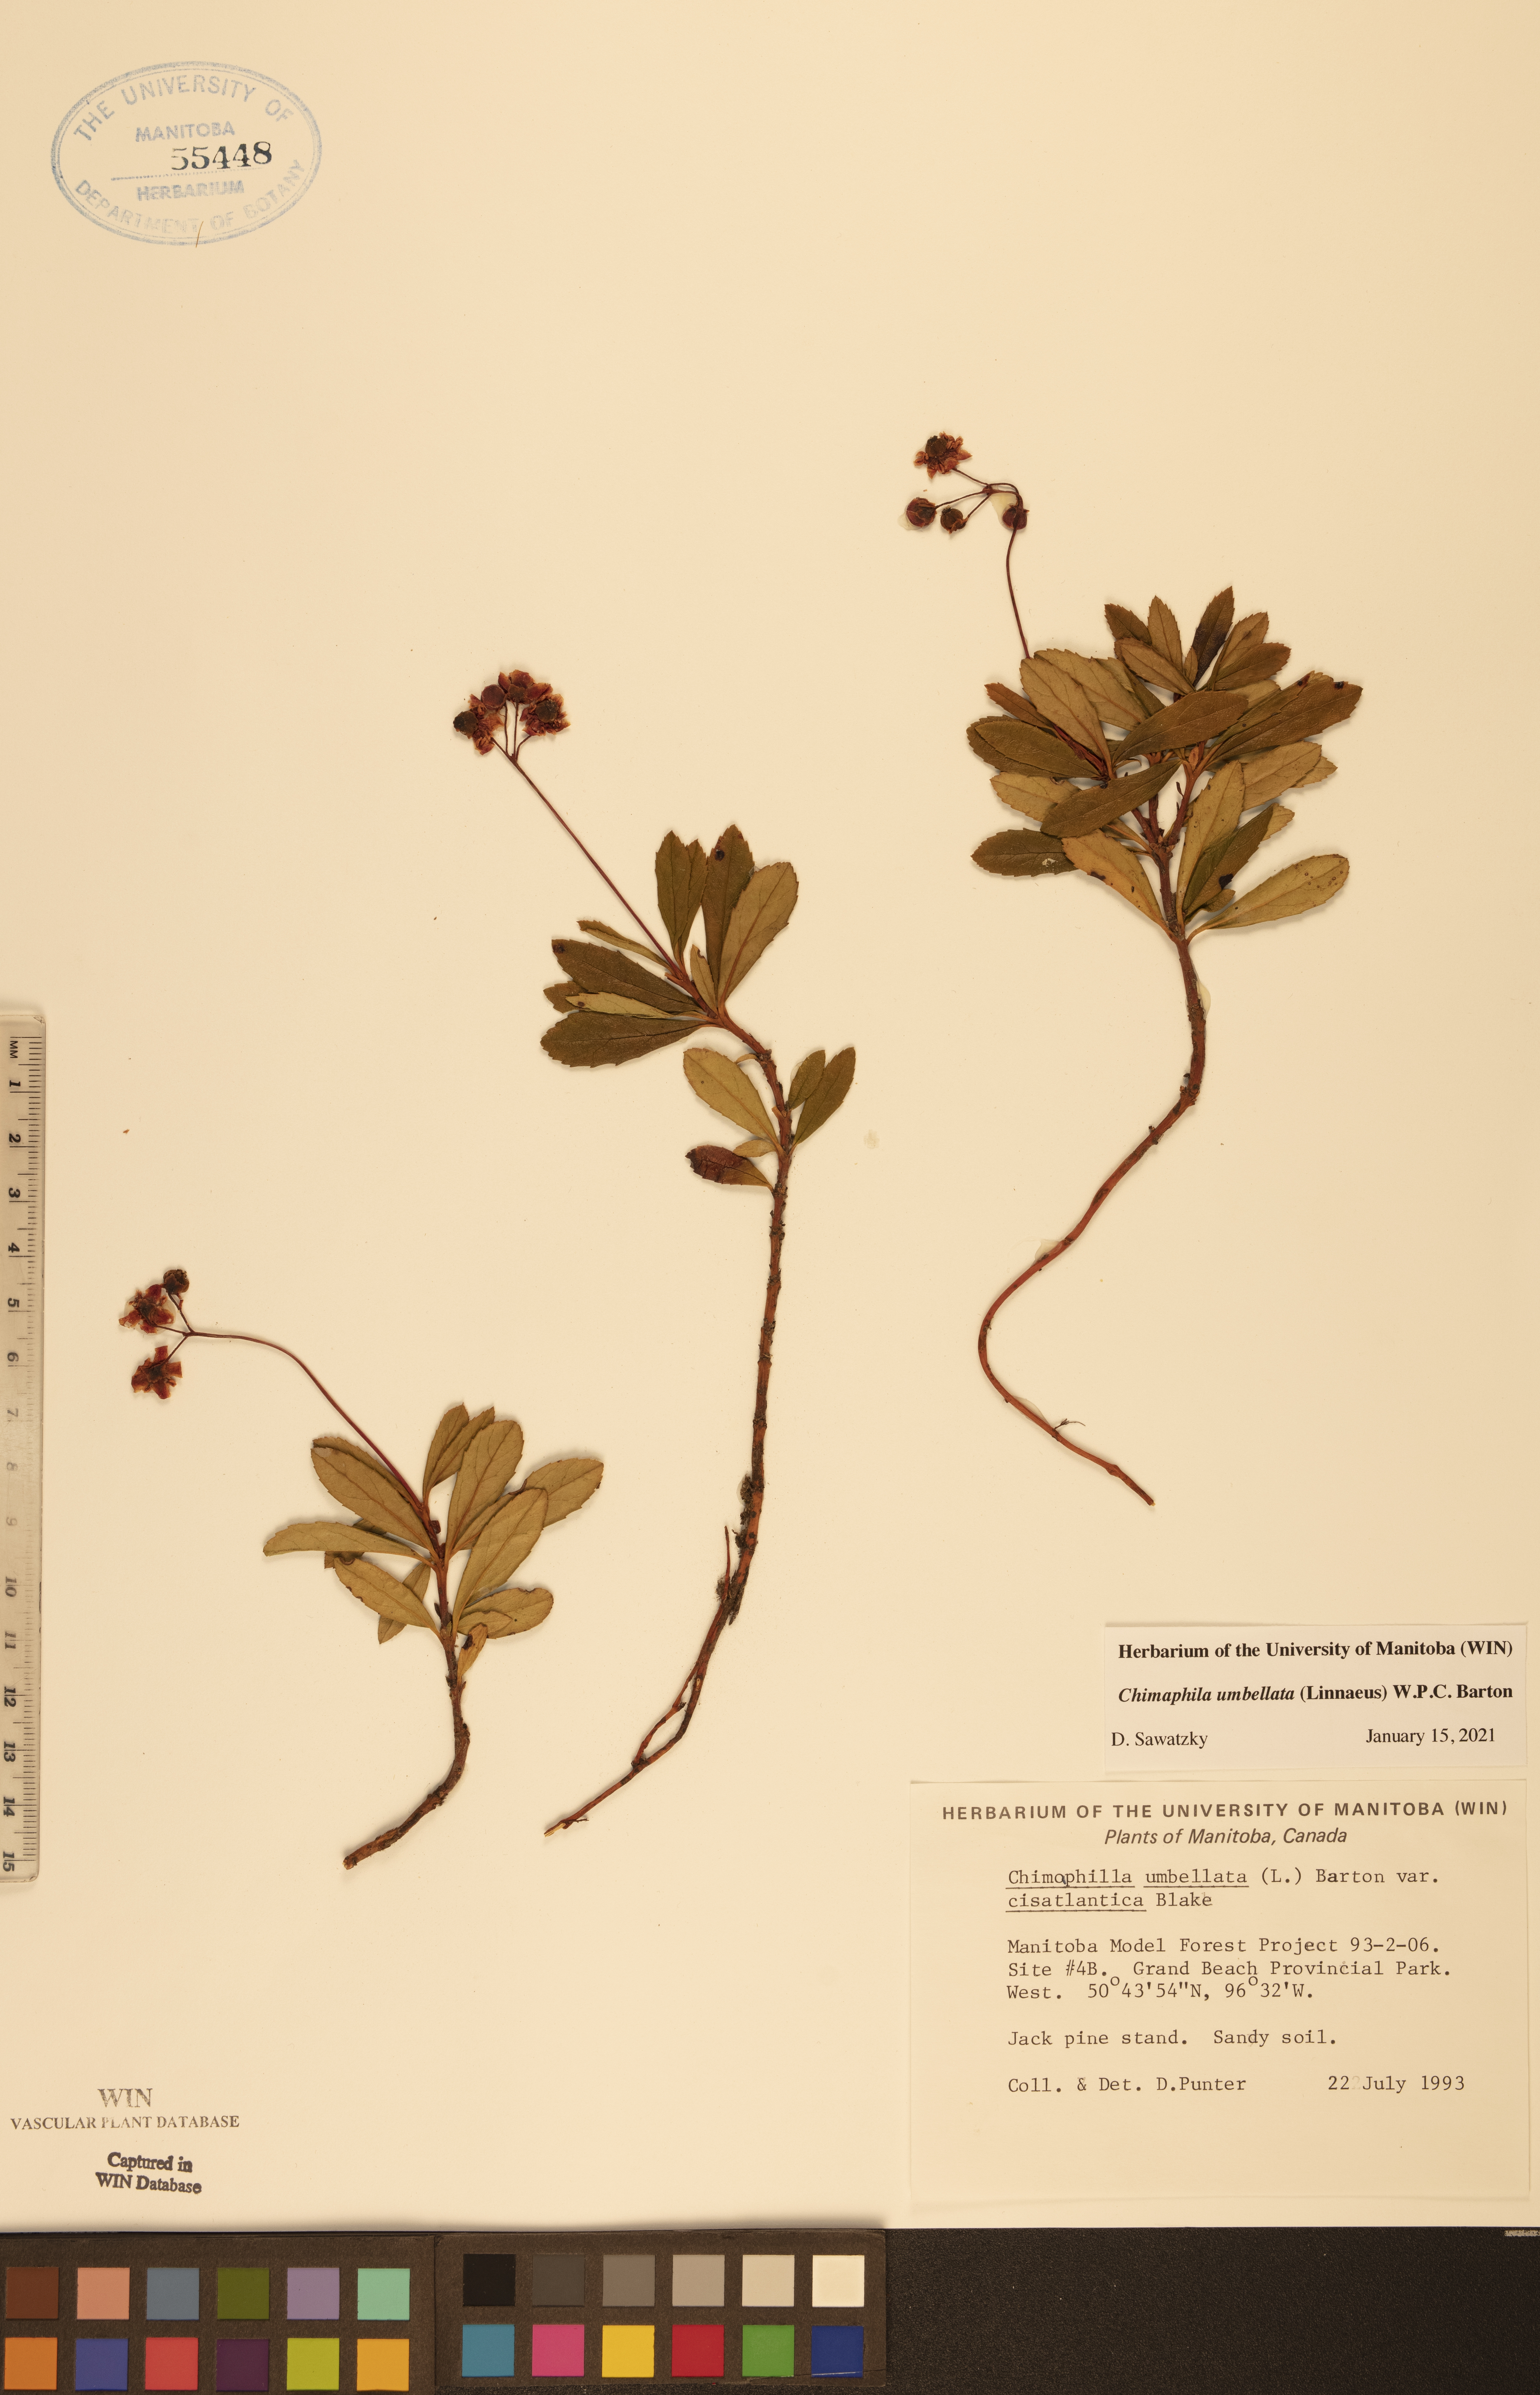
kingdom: Plantae
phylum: Tracheophyta
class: Magnoliopsida
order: Ericales
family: Ericaceae
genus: Chimaphila
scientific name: Chimaphila umbellata
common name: Pipsissewa
